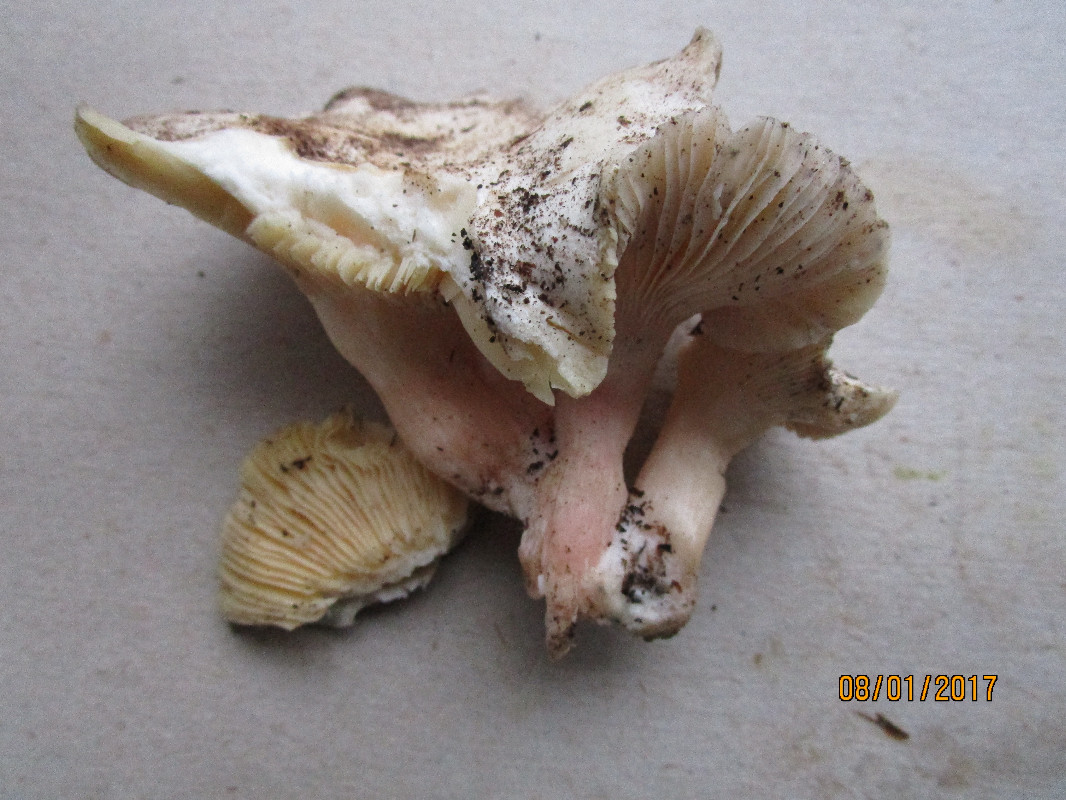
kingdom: Fungi
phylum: Basidiomycota
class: Agaricomycetes
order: Agaricales
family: Tricholomataceae
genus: Pseudoclitopilus
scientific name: Pseudoclitopilus rhodoleucus
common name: rosabladet tragtridderhat
